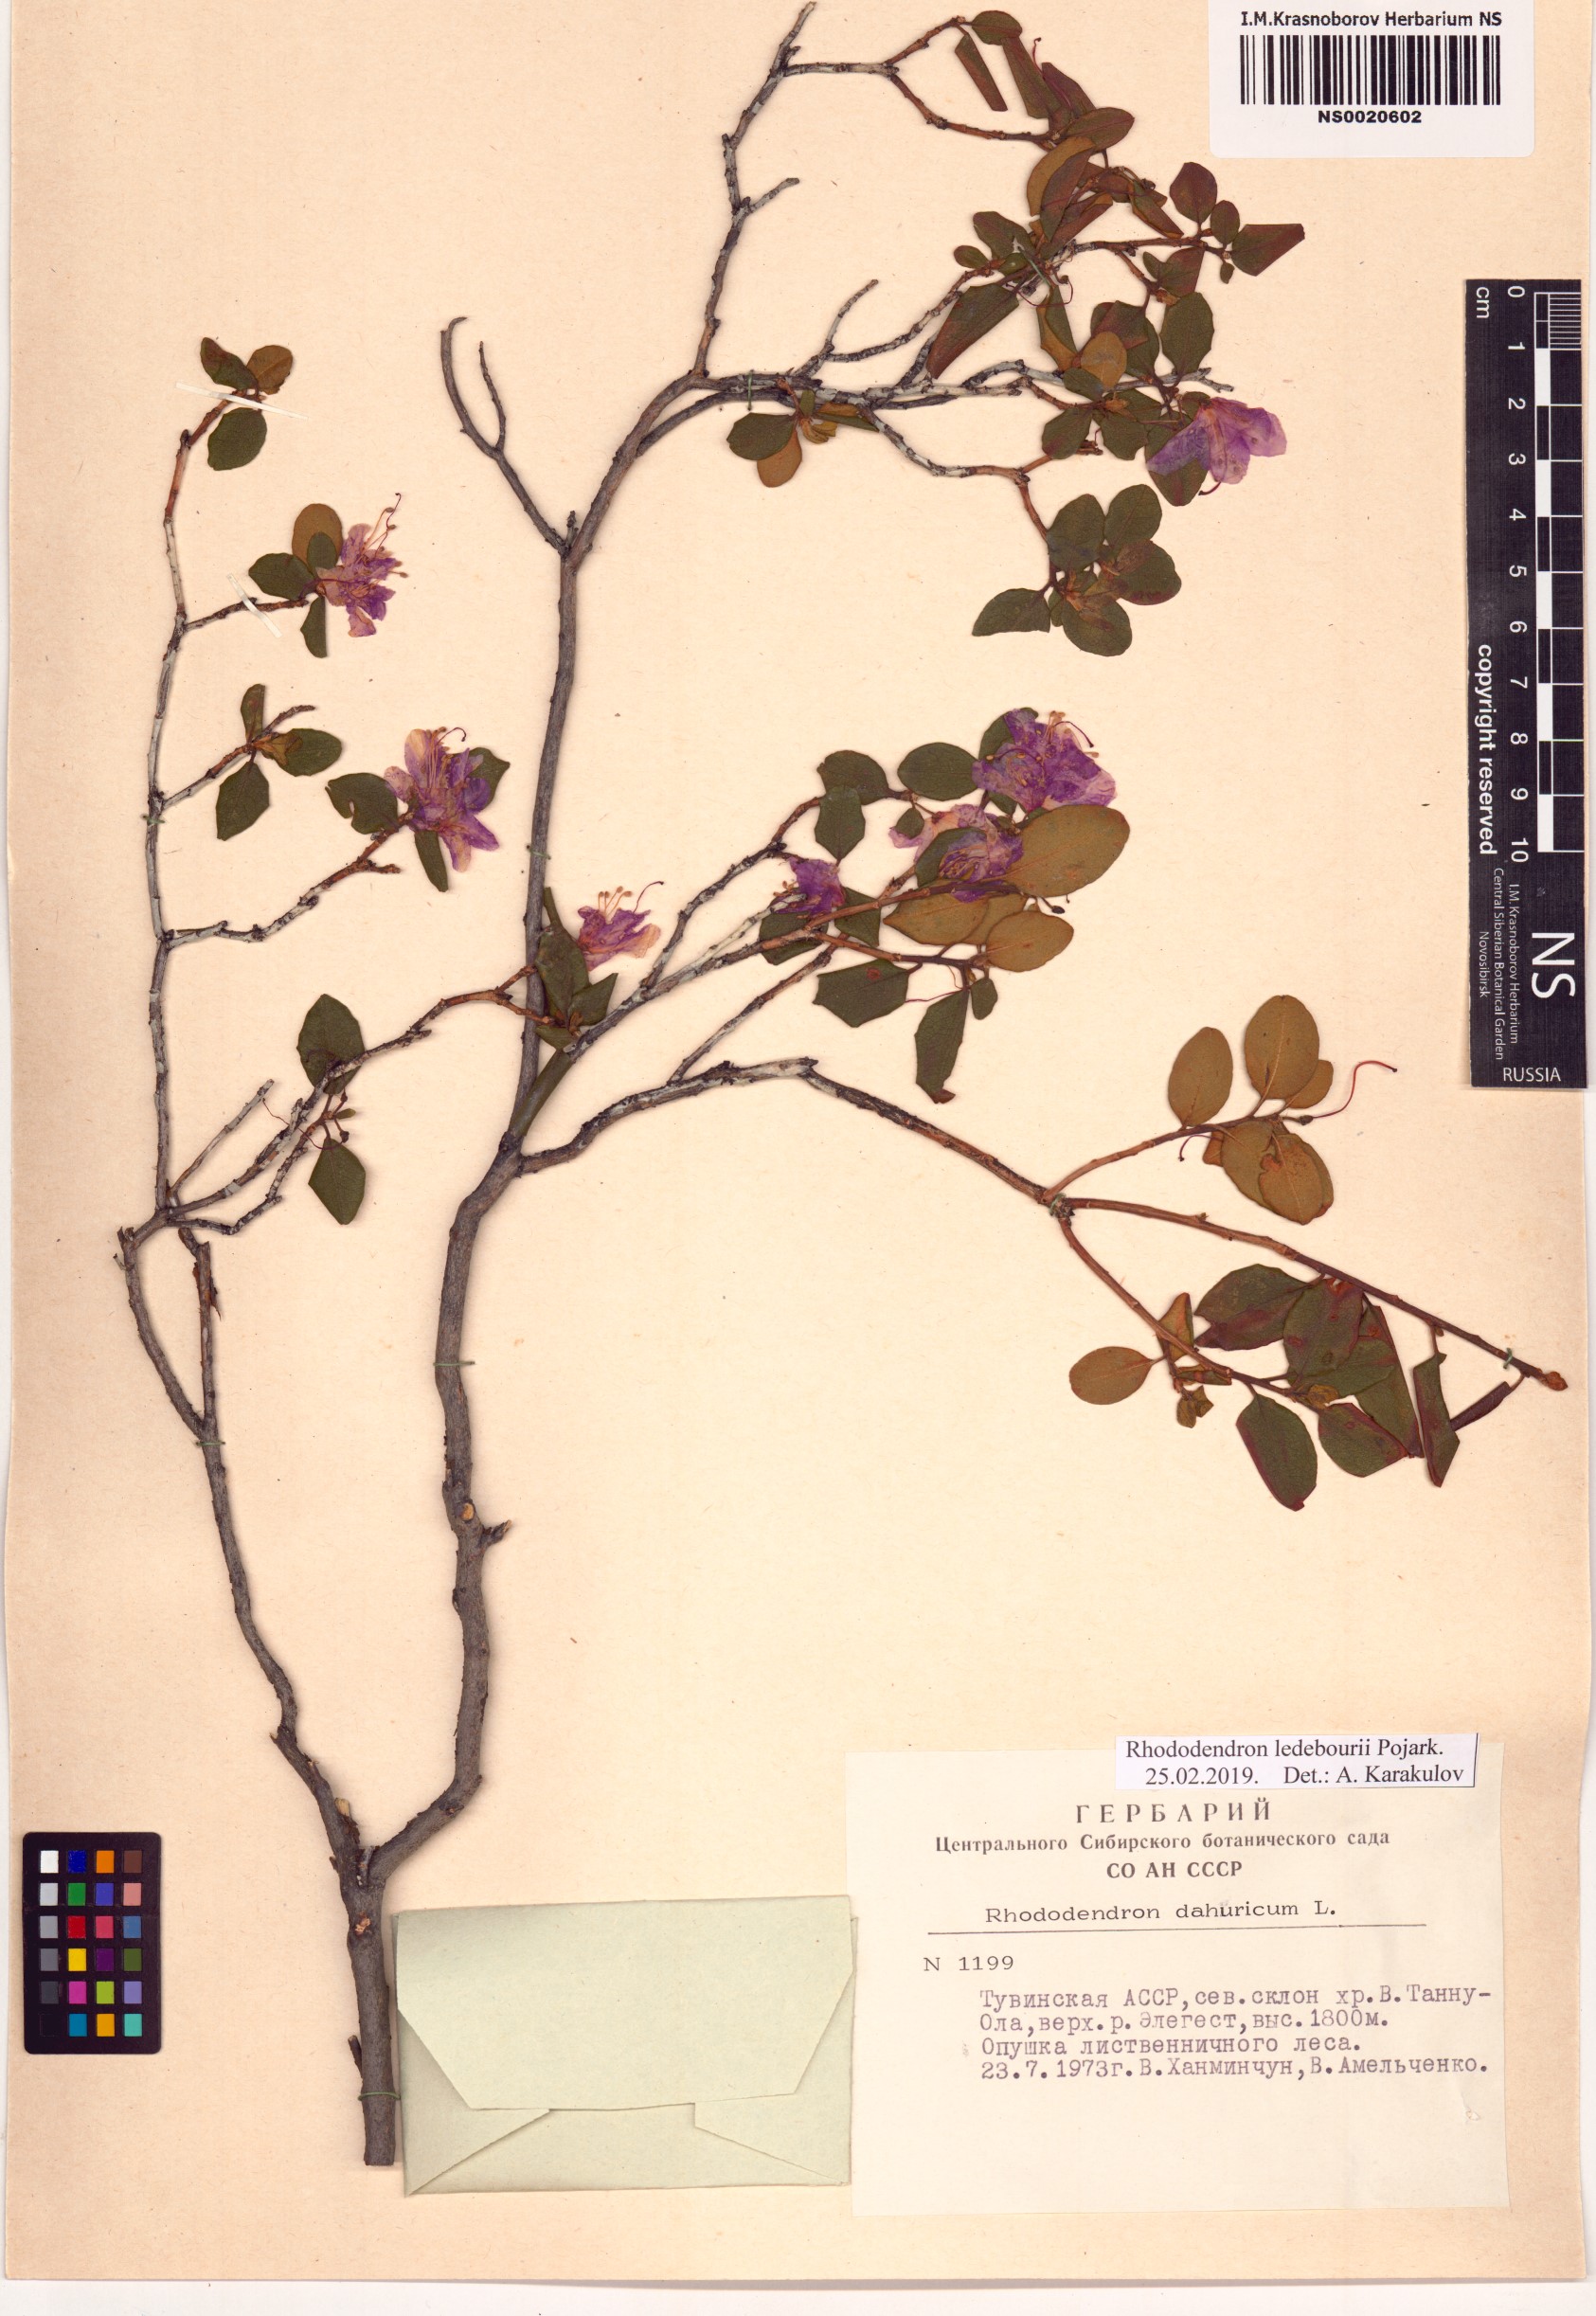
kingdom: Plantae
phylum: Tracheophyta
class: Magnoliopsida
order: Ericales
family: Ericaceae
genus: Rhododendron
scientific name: Rhododendron dauricum
